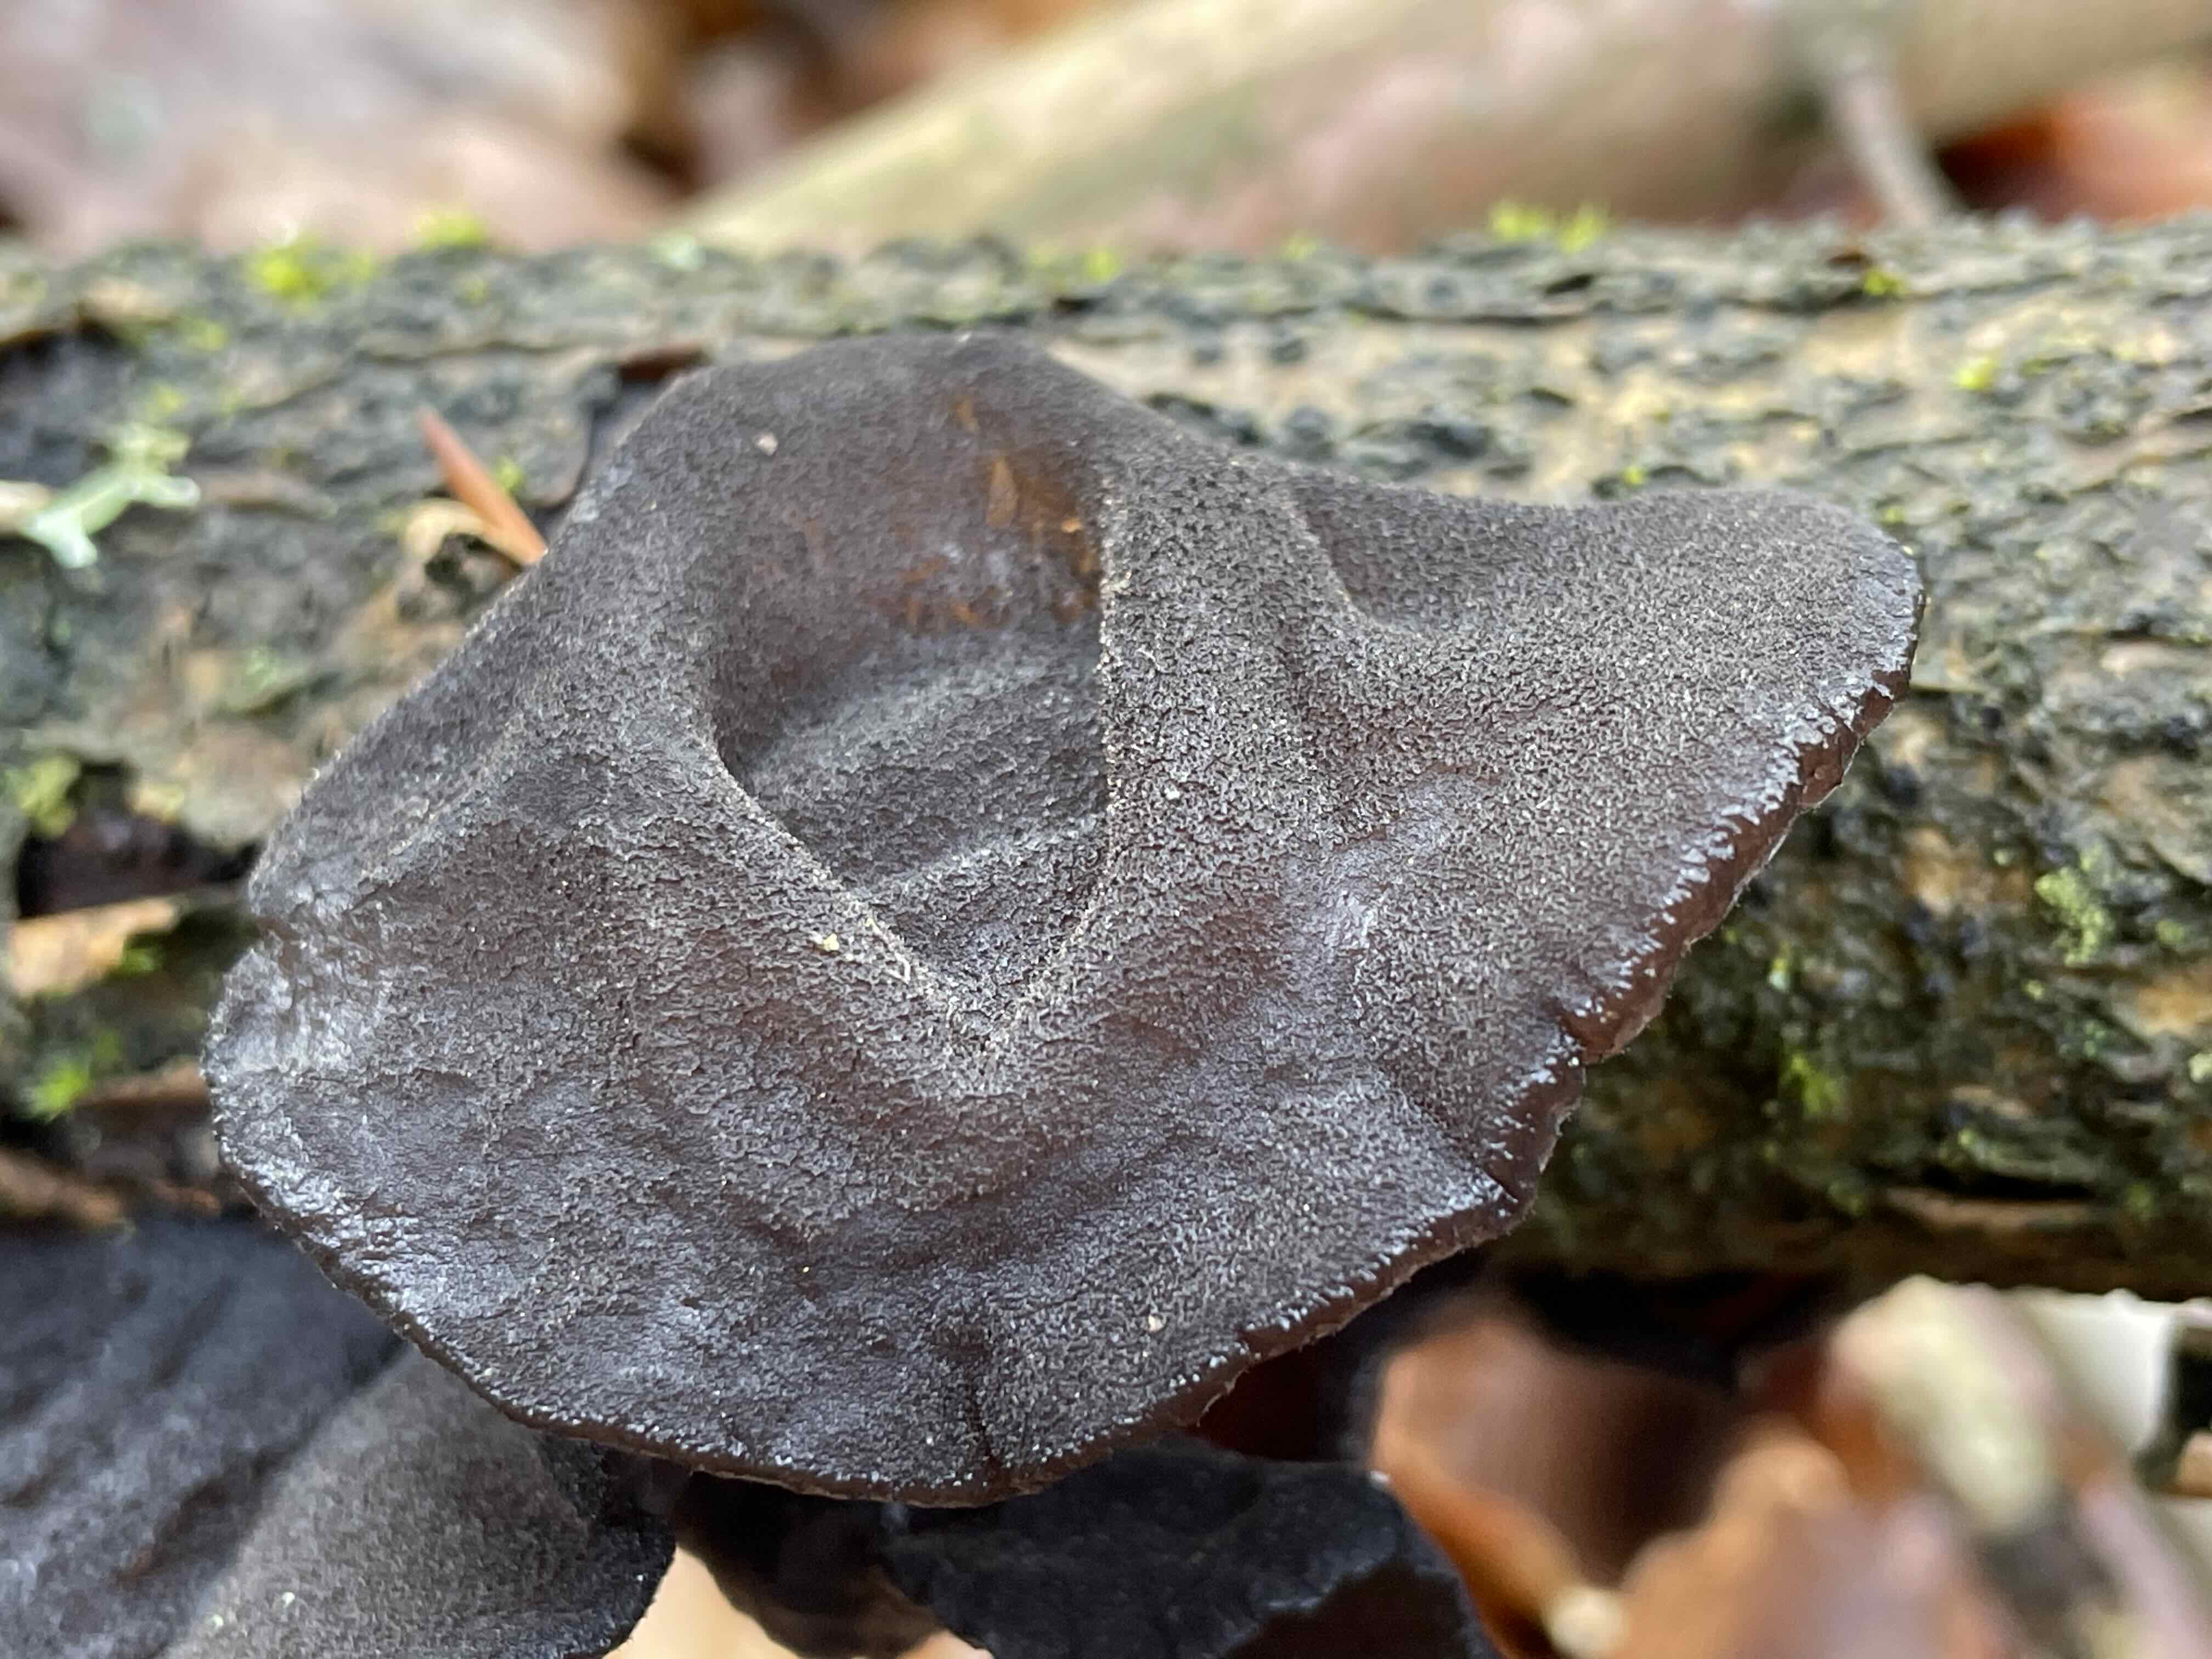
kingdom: Fungi
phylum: Basidiomycota
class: Agaricomycetes
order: Auriculariales
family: Auriculariaceae
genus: Exidia
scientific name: Exidia glandulosa
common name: ege-bævretop
